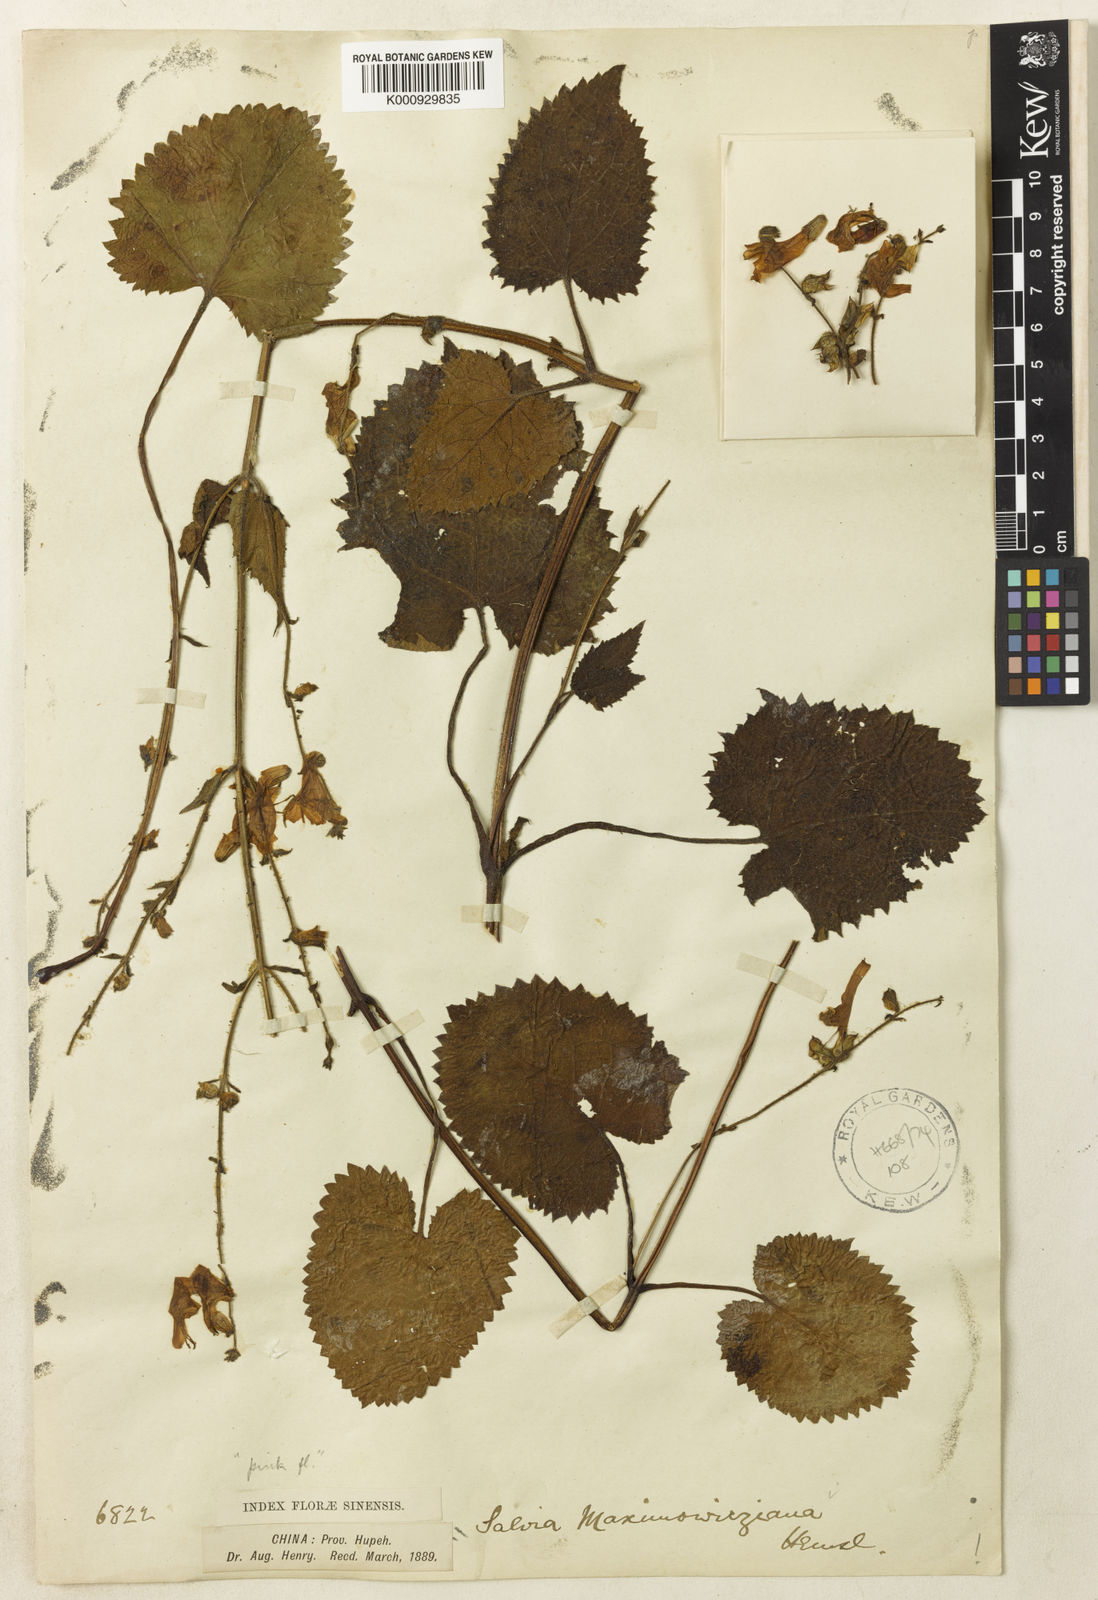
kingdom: Plantae
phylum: Tracheophyta
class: Magnoliopsida
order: Lamiales
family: Lamiaceae
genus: Salvia
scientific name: Salvia maximowicziana
